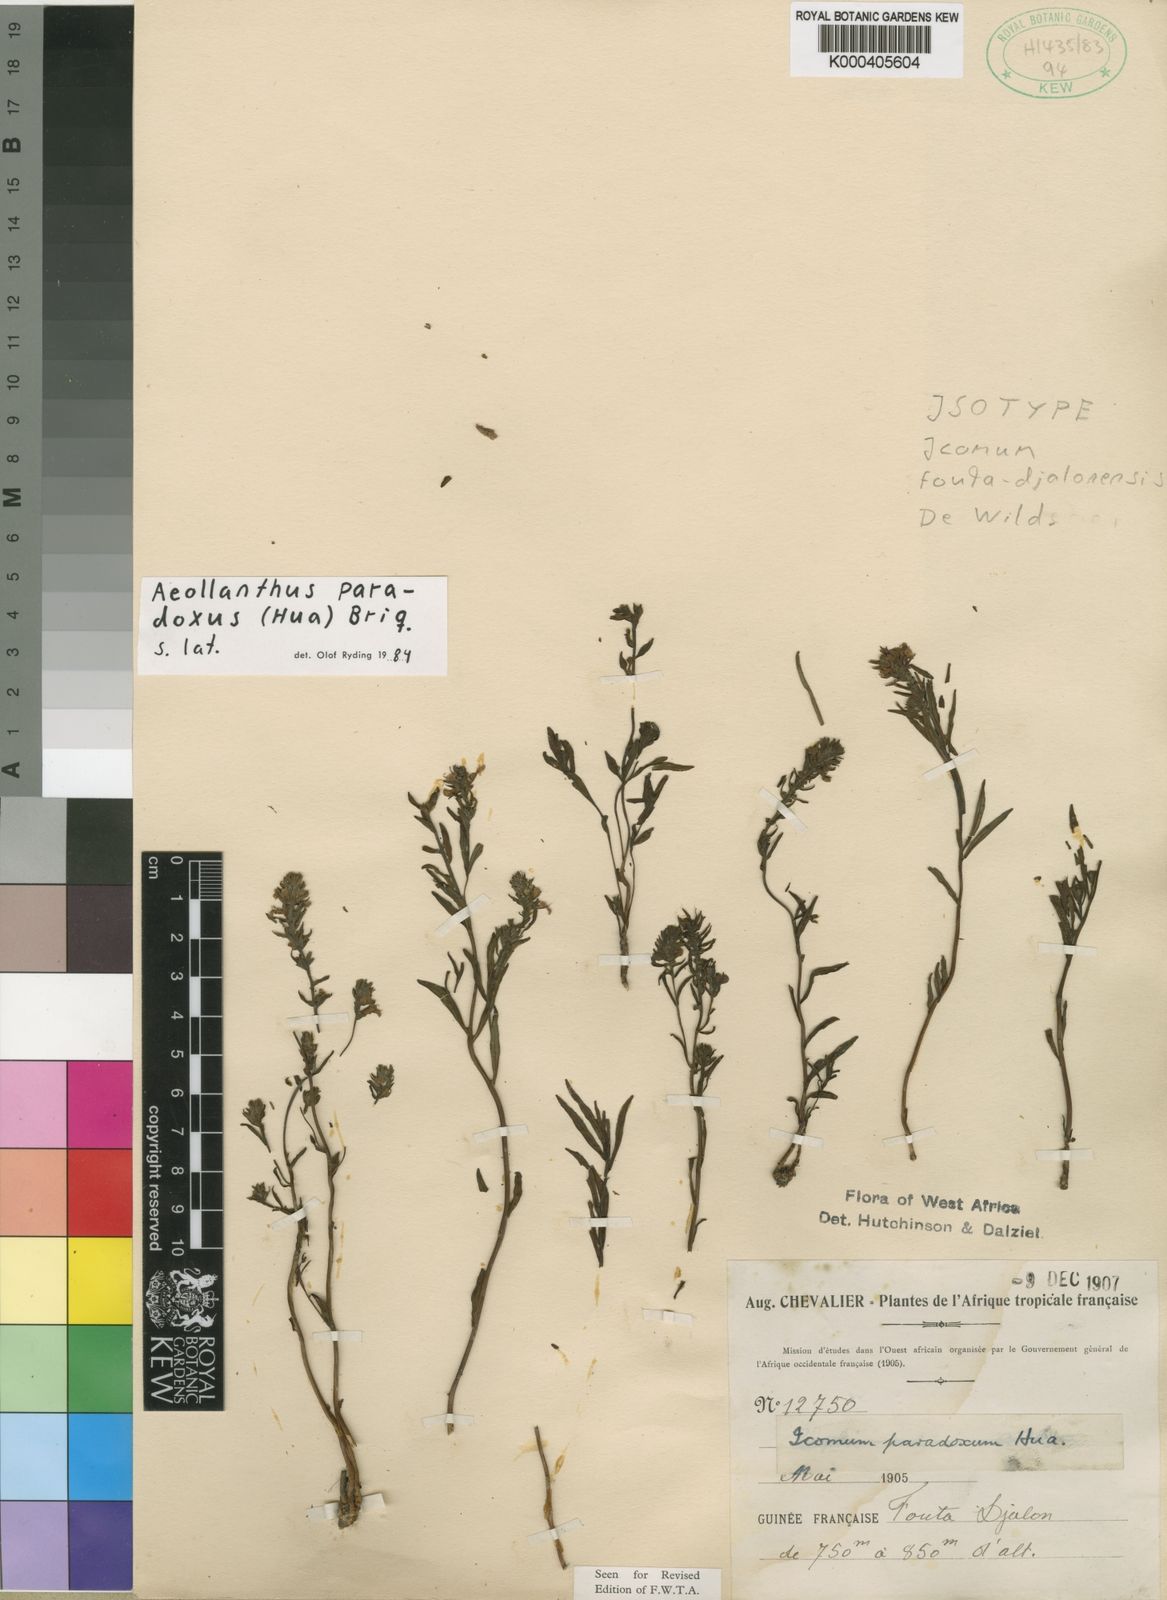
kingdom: Plantae
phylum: Tracheophyta
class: Magnoliopsida
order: Lamiales
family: Lamiaceae
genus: Aeollanthus
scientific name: Aeollanthus paradoxus
